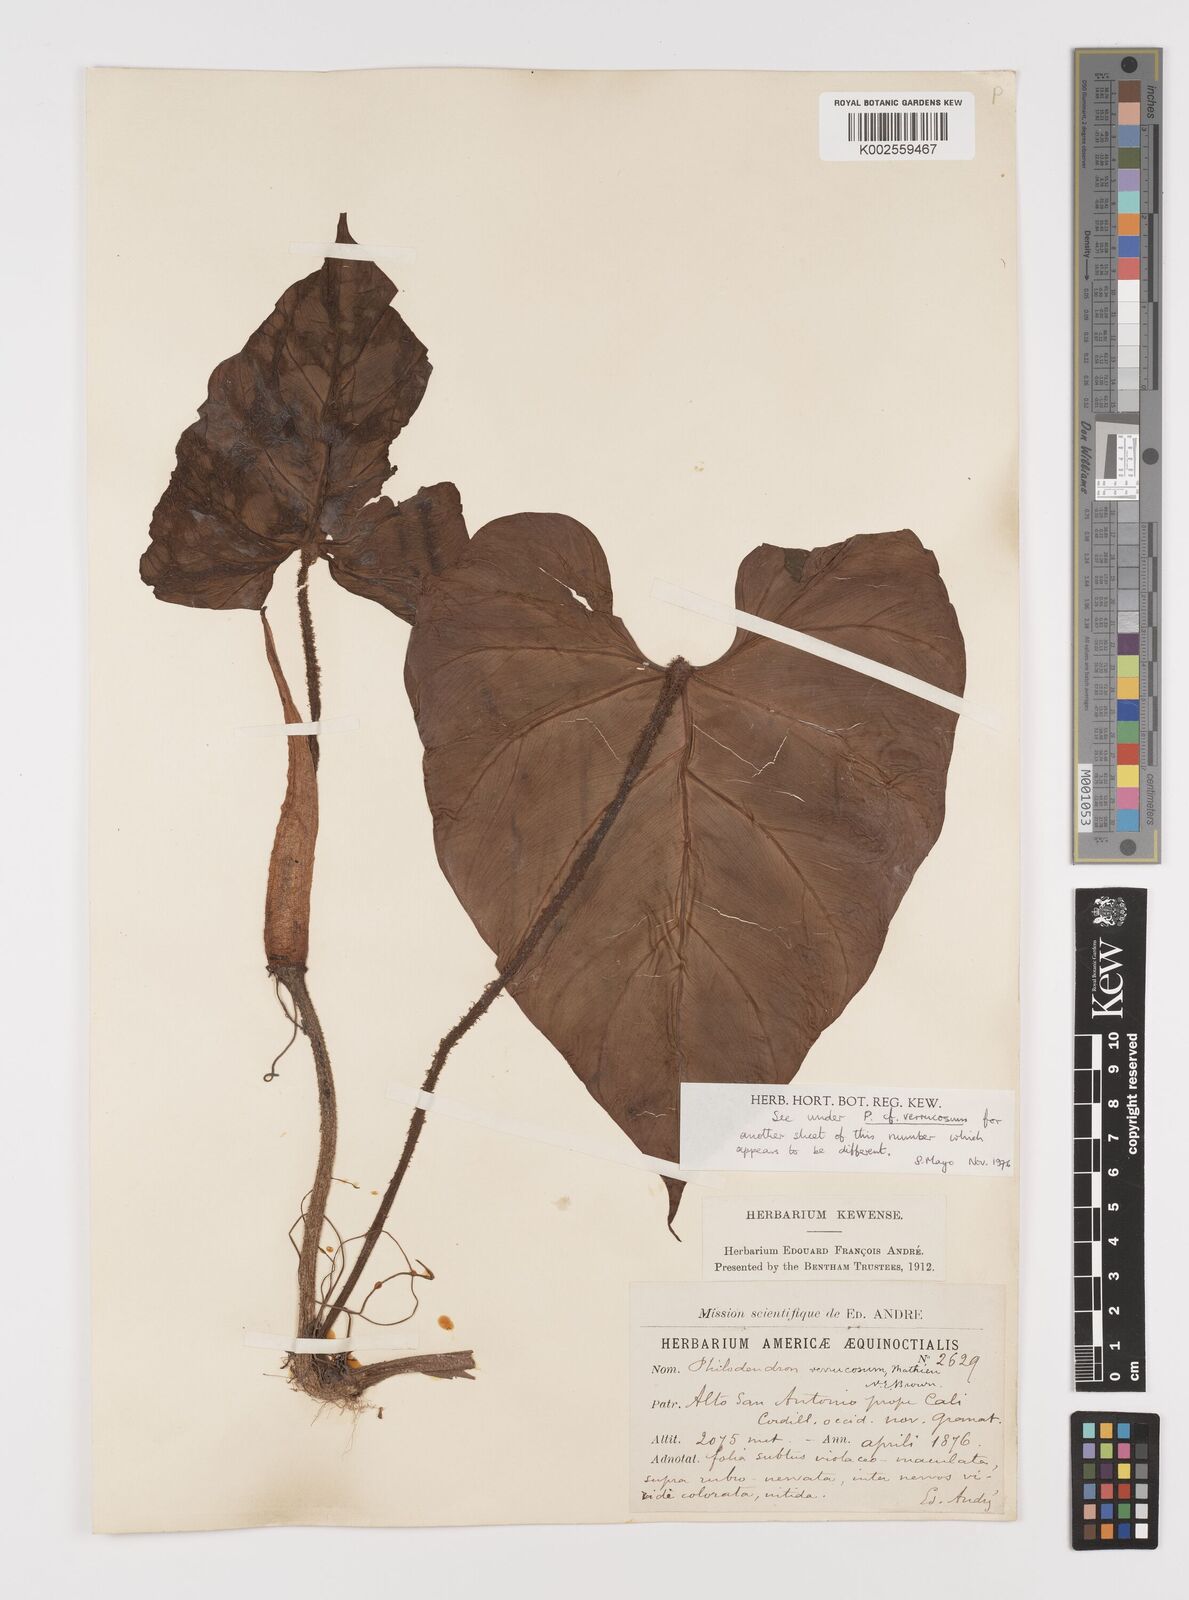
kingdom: Plantae
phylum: Tracheophyta
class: Liliopsida
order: Alismatales
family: Araceae
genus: Philodendron
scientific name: Philodendron verrucosum
